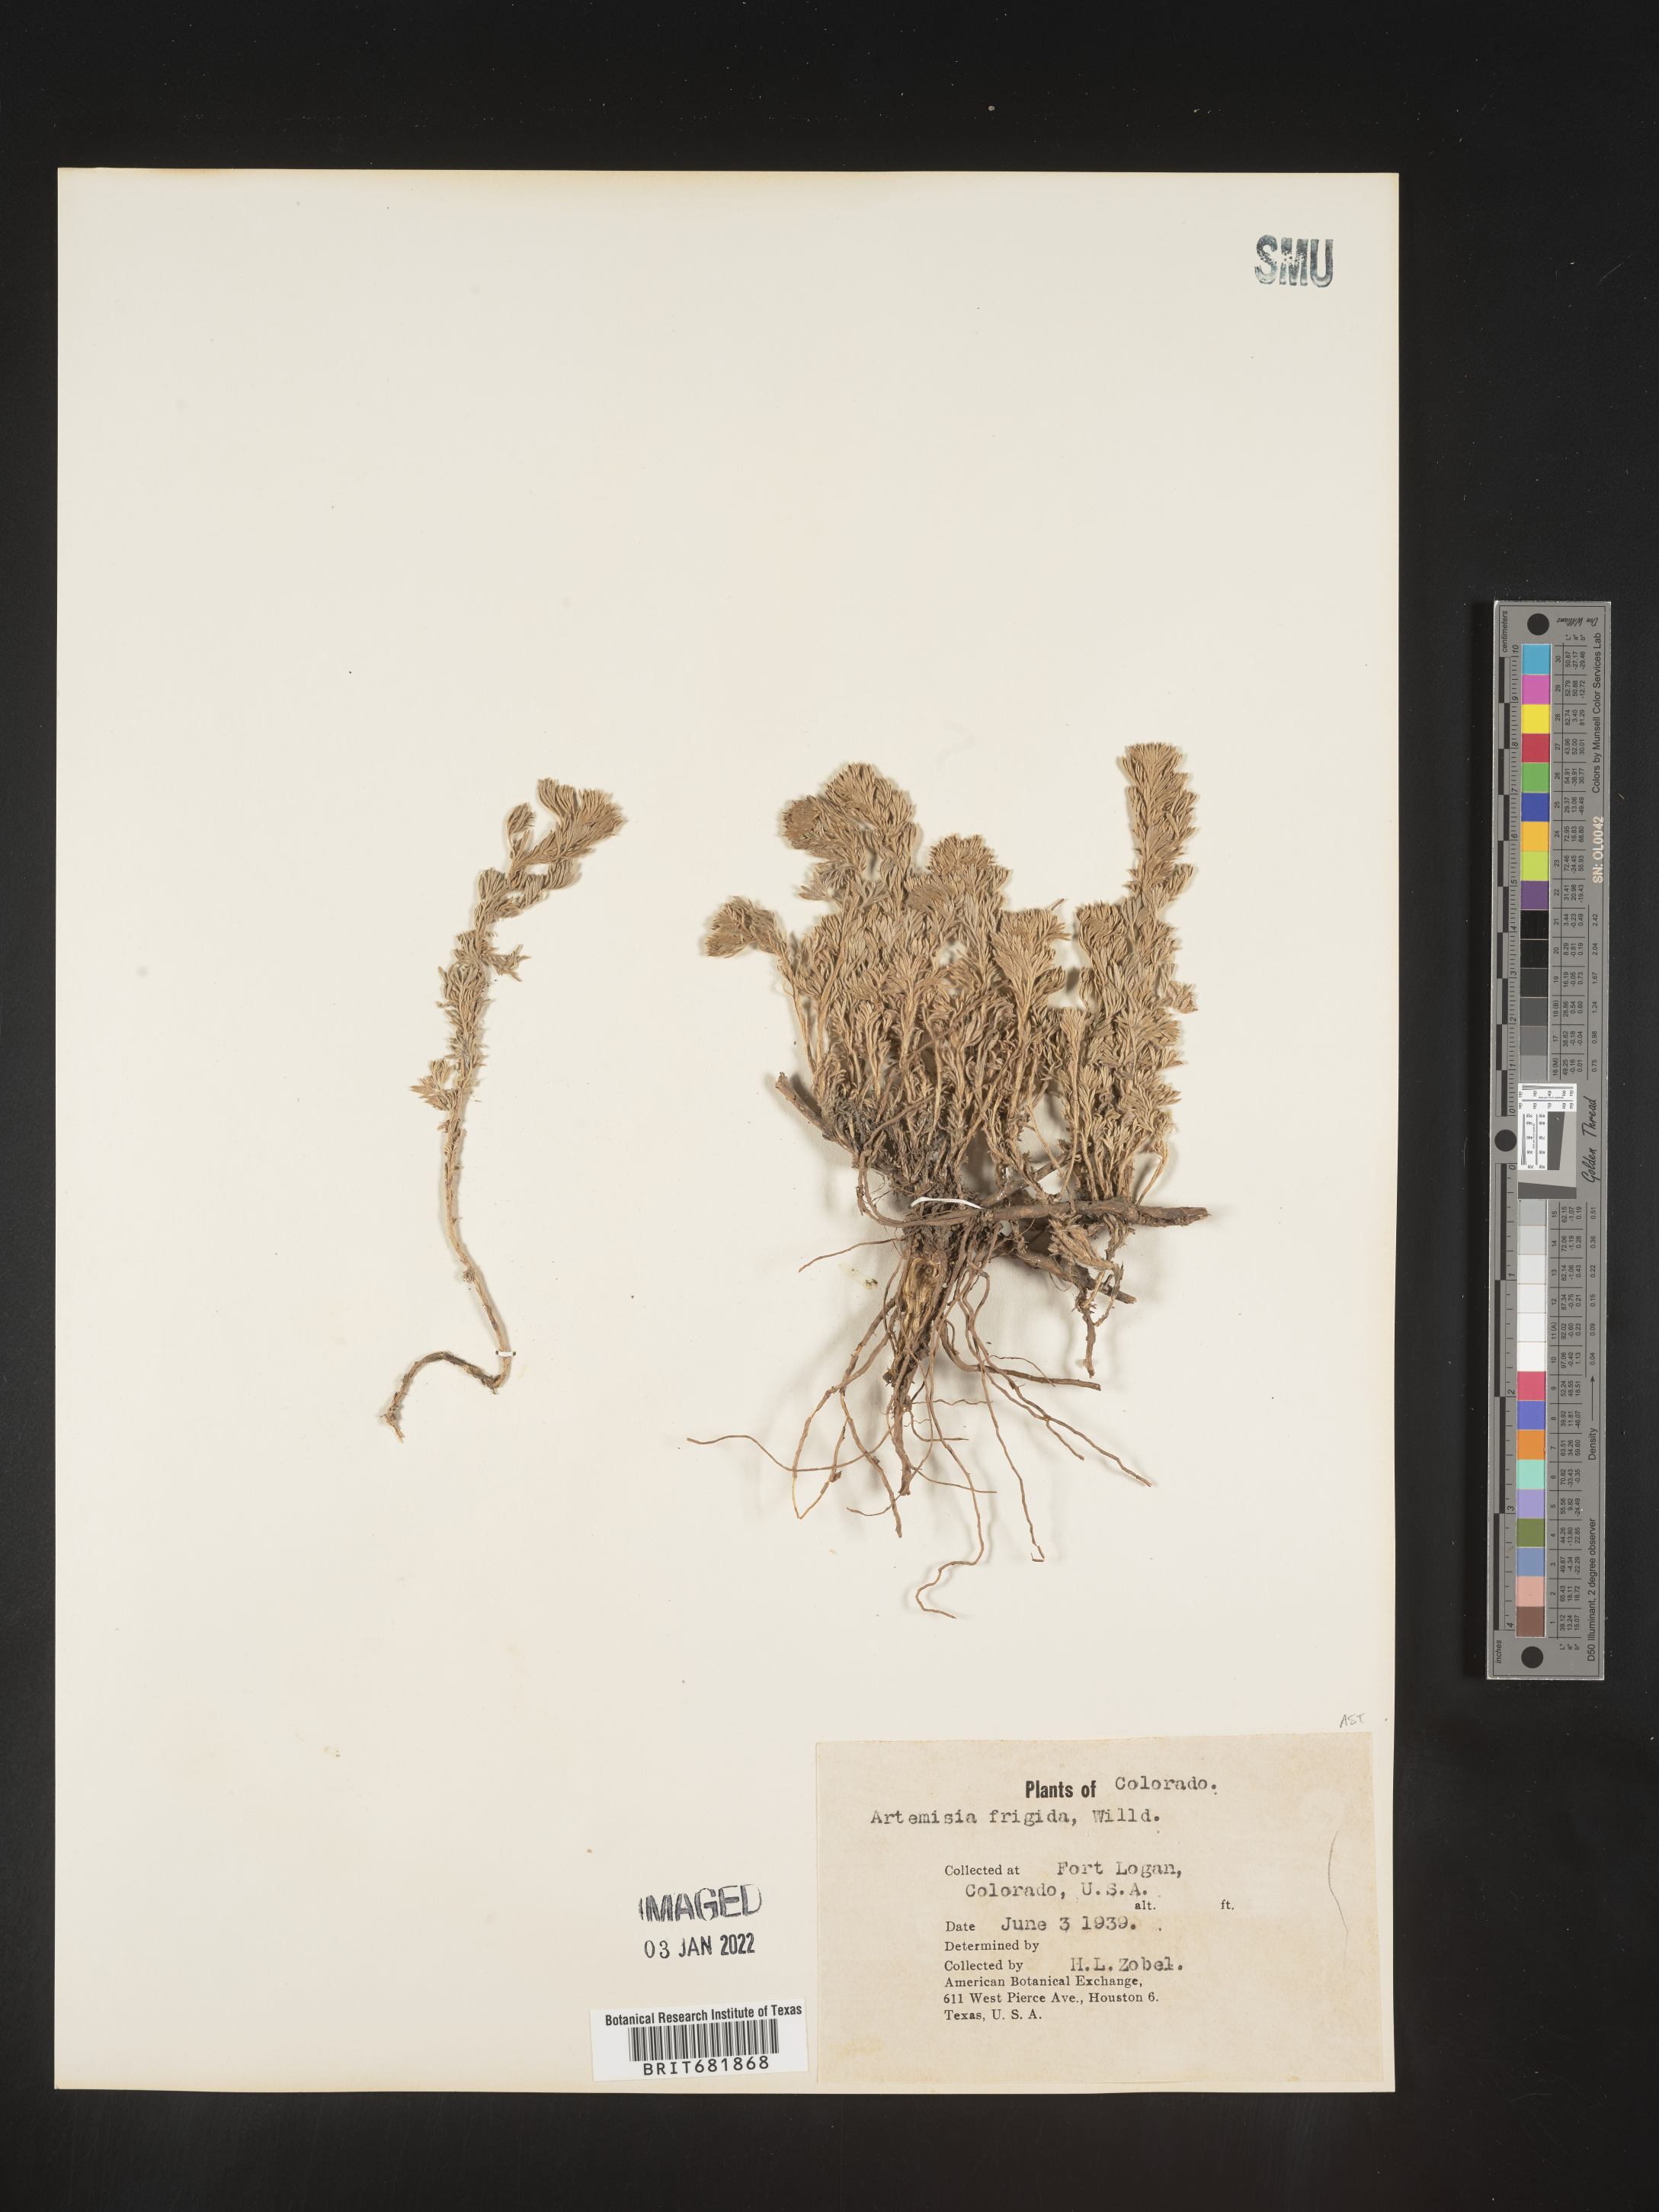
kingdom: Plantae
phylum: Tracheophyta
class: Magnoliopsida
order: Asterales
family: Asteraceae
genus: Artemisia
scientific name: Artemisia frigida
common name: Prairie sagewort
